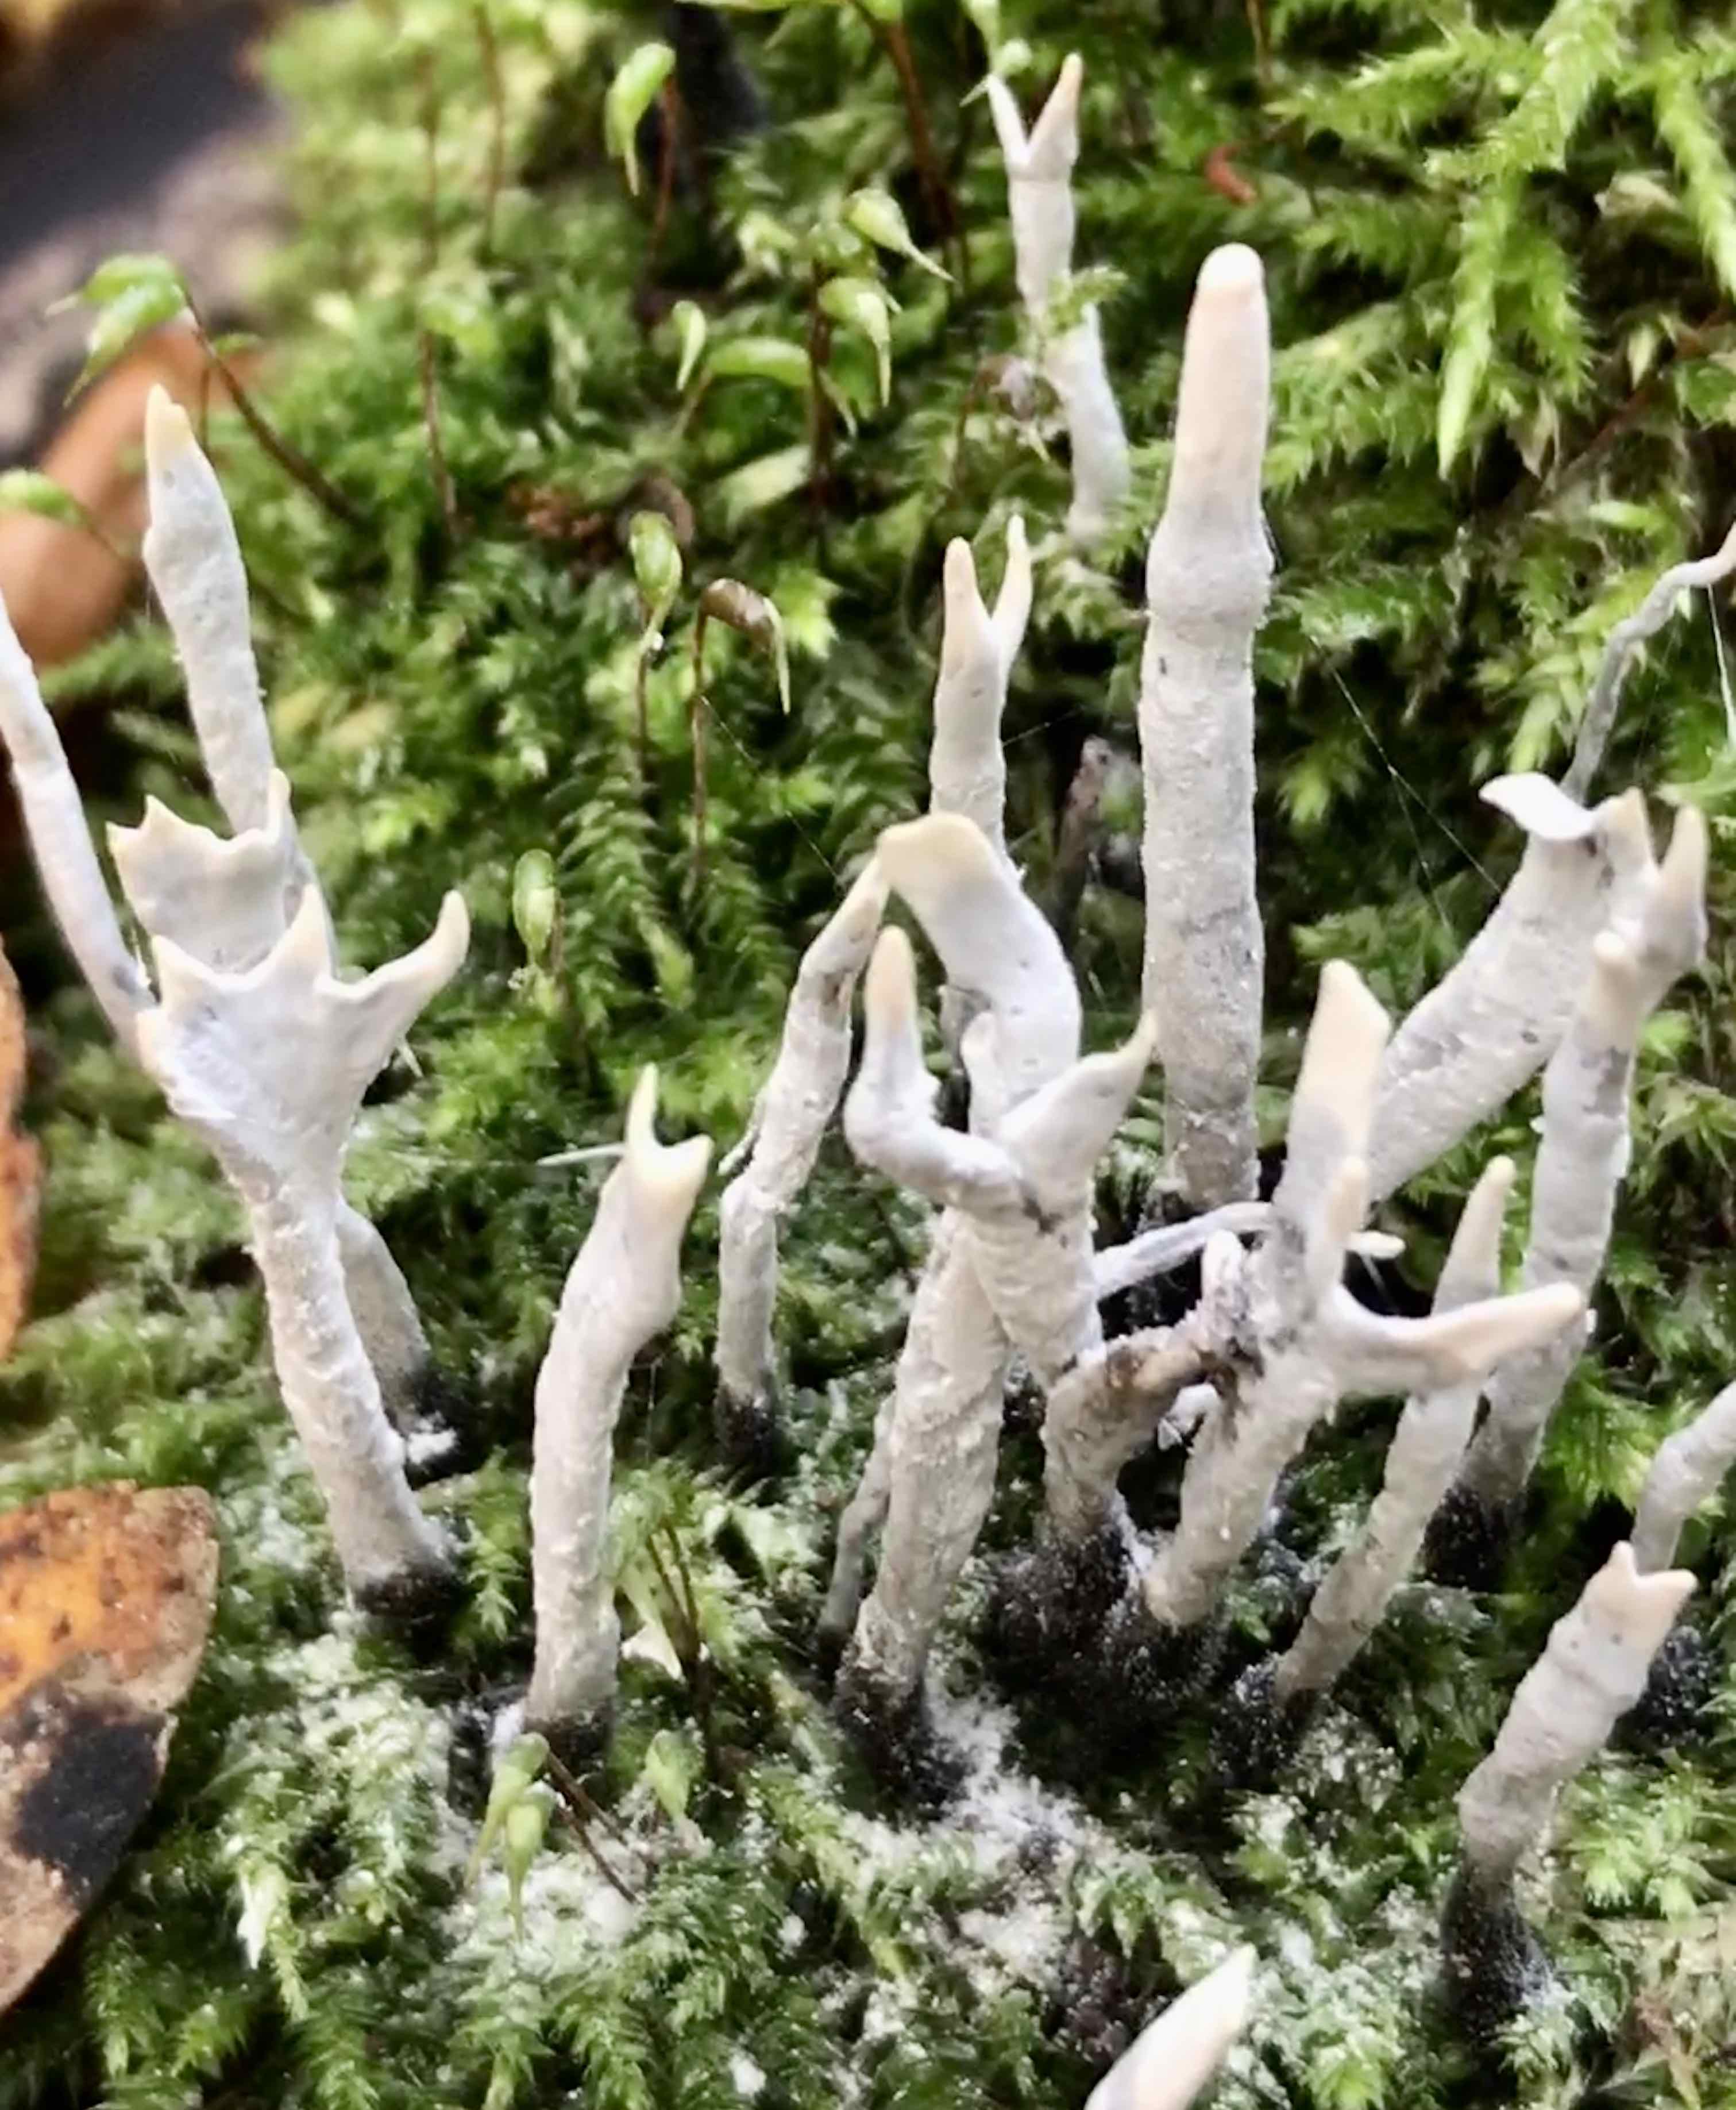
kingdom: Fungi
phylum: Ascomycota
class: Sordariomycetes
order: Xylariales
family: Xylariaceae
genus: Xylaria
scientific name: Xylaria hypoxylon
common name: grenet stødsvamp
